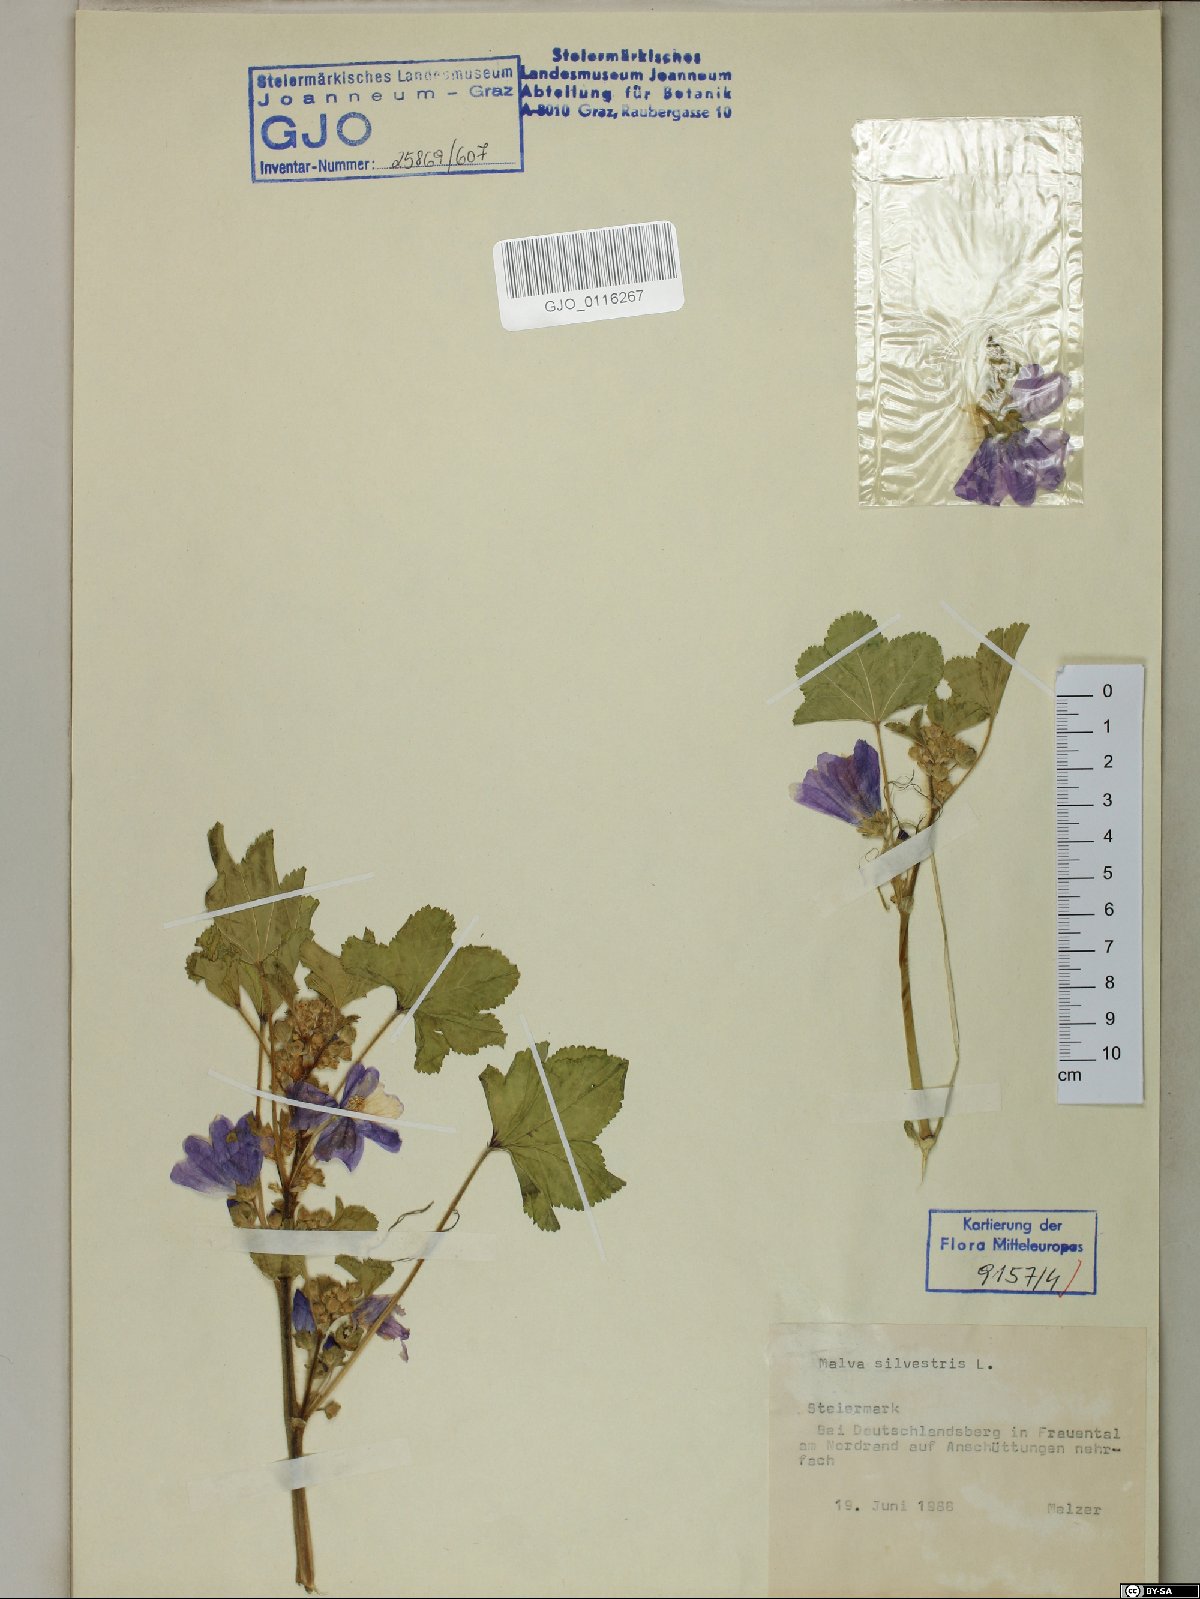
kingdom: Plantae
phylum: Tracheophyta
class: Magnoliopsida
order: Malvales
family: Malvaceae
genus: Malva
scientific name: Malva sylvestris
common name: Common mallow
